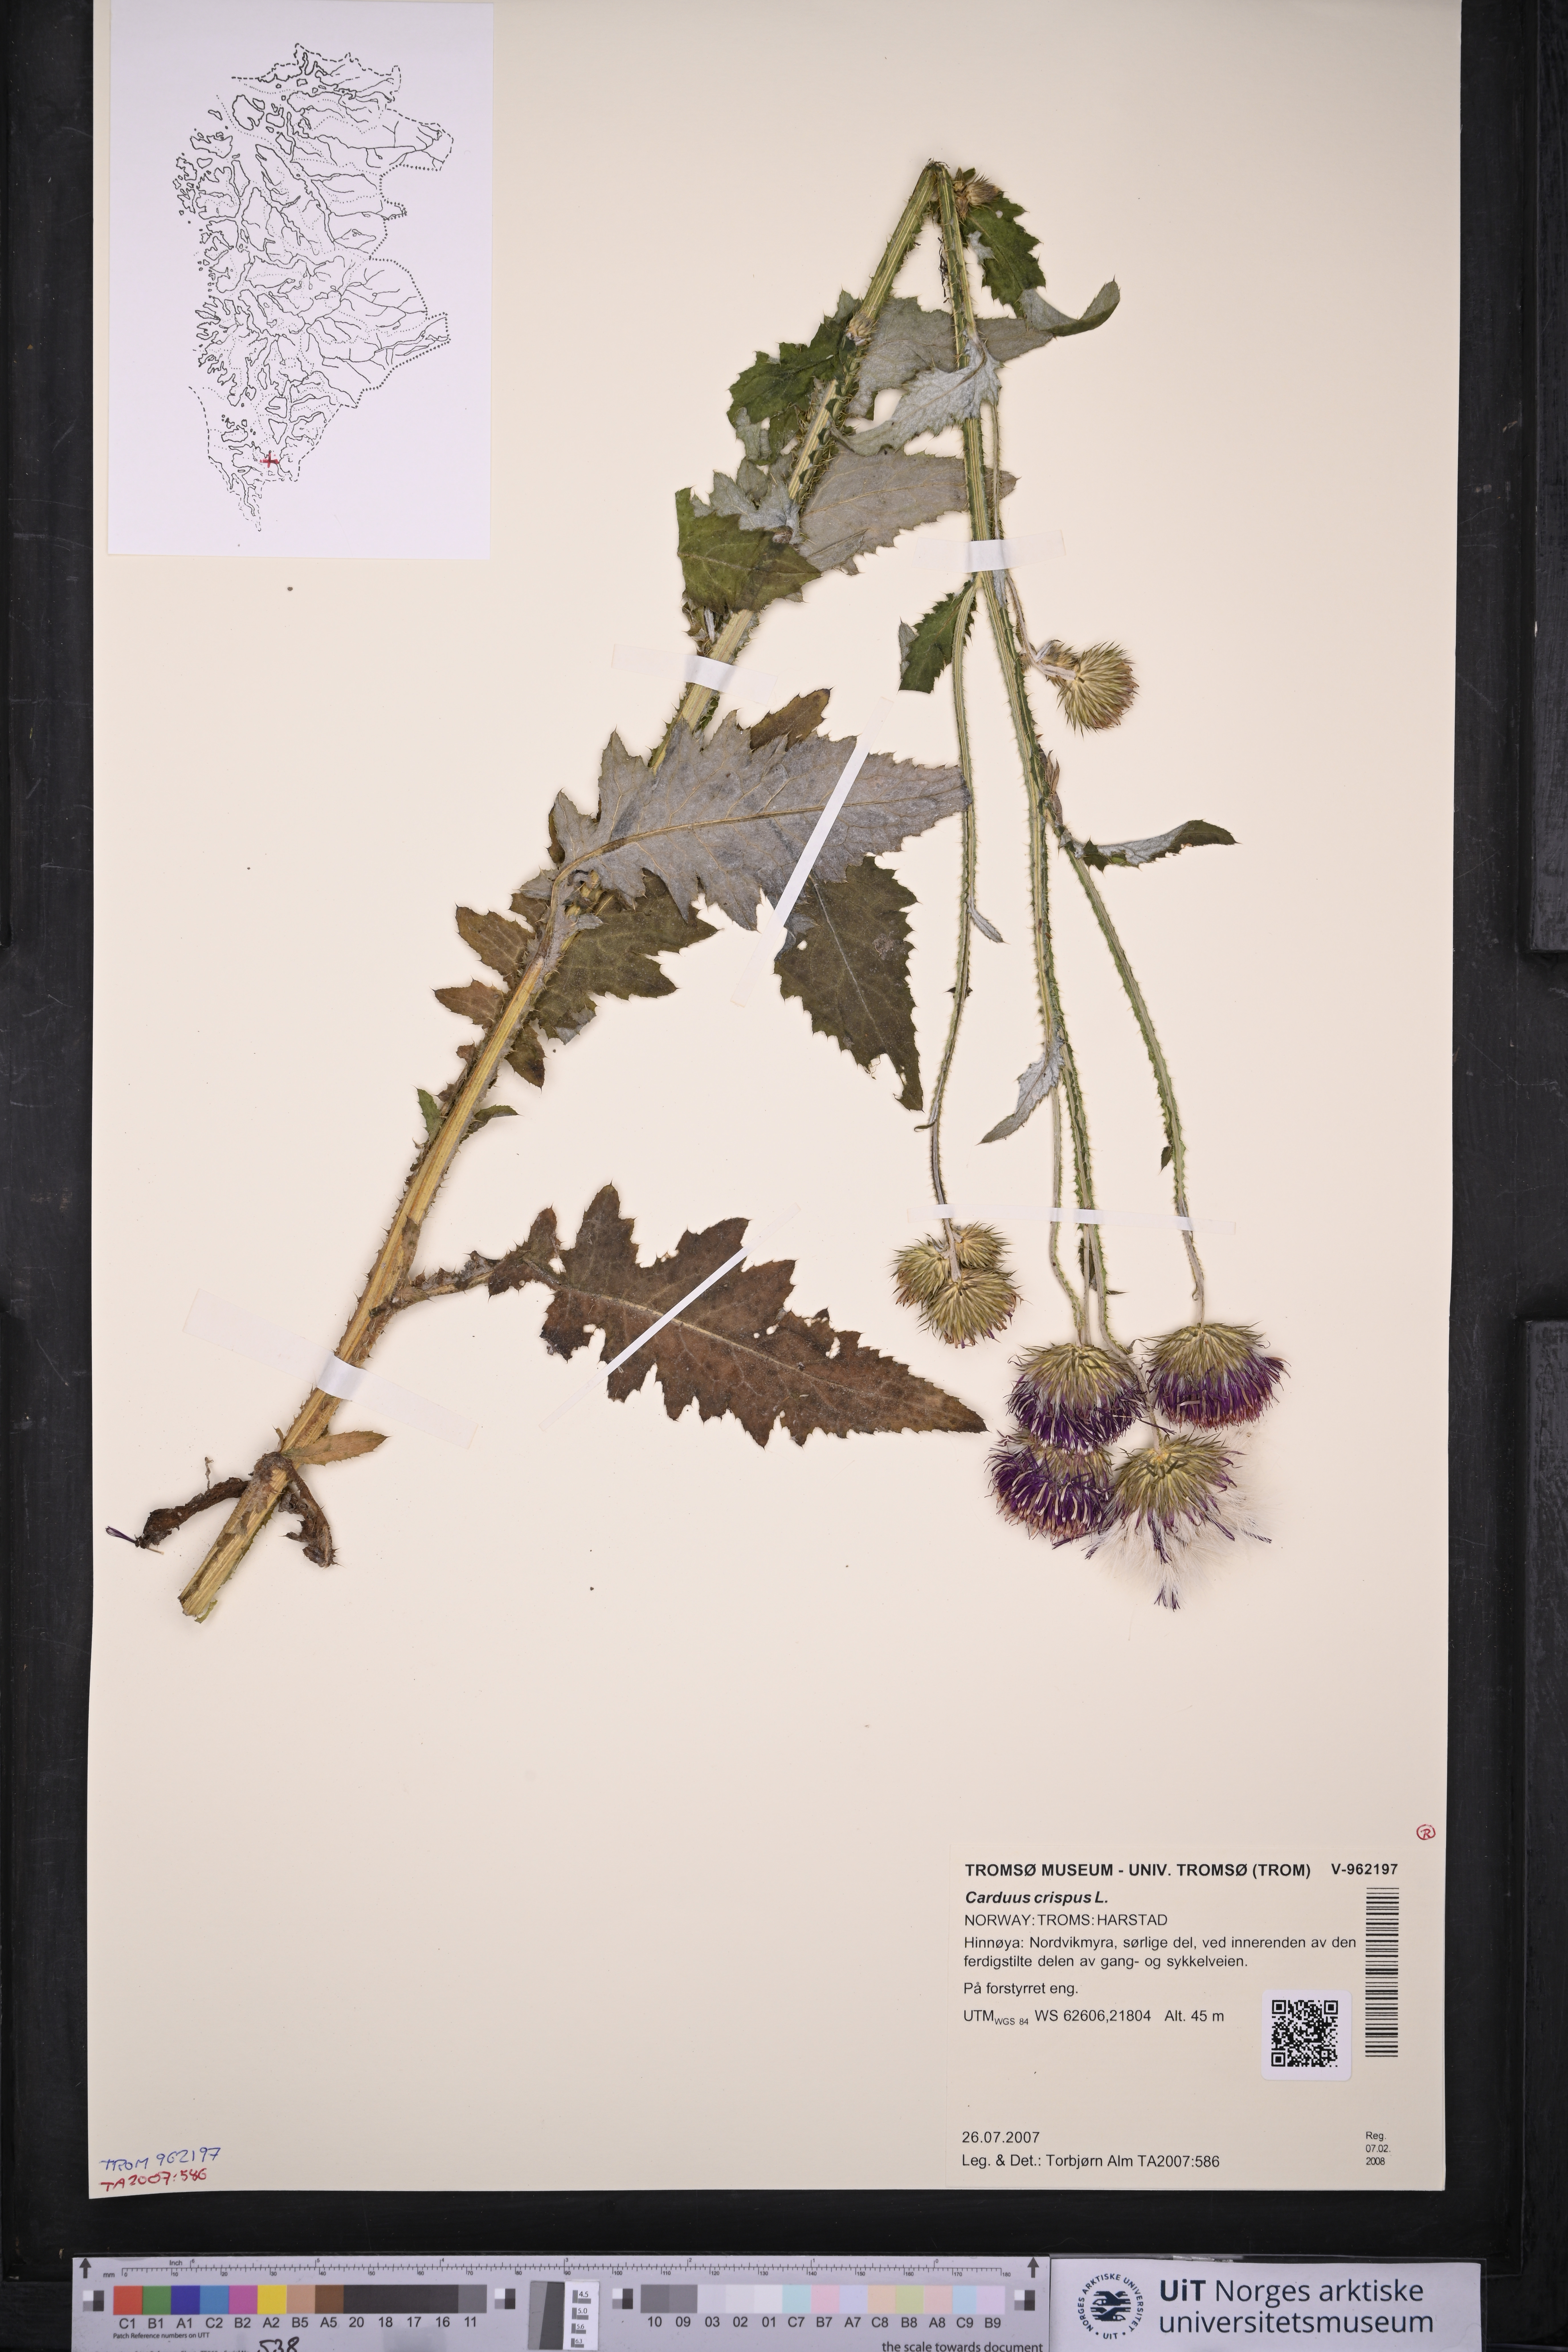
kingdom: Plantae
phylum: Tracheophyta
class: Magnoliopsida
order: Asterales
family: Asteraceae
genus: Carduus
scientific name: Carduus crispus
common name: Welted thistle
